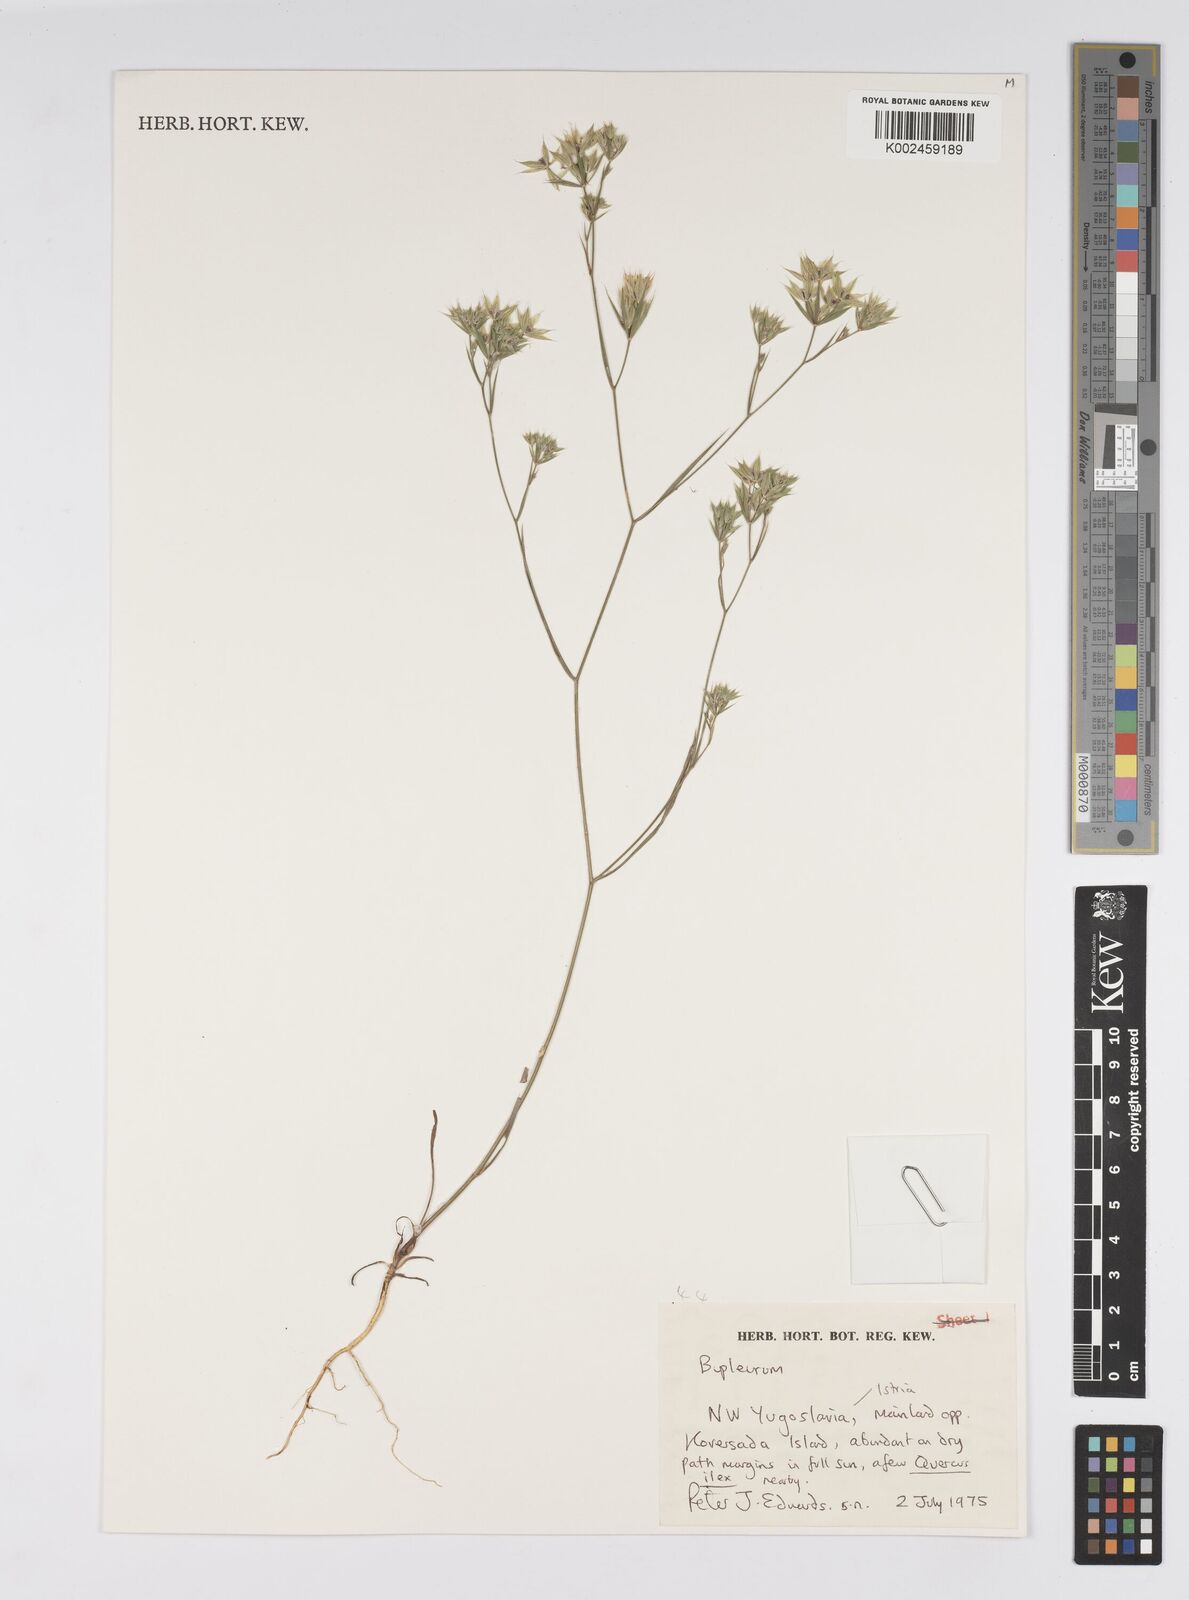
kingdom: Plantae
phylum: Tracheophyta
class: Magnoliopsida
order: Apiales
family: Apiaceae
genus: Bupleurum
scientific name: Bupleurum
